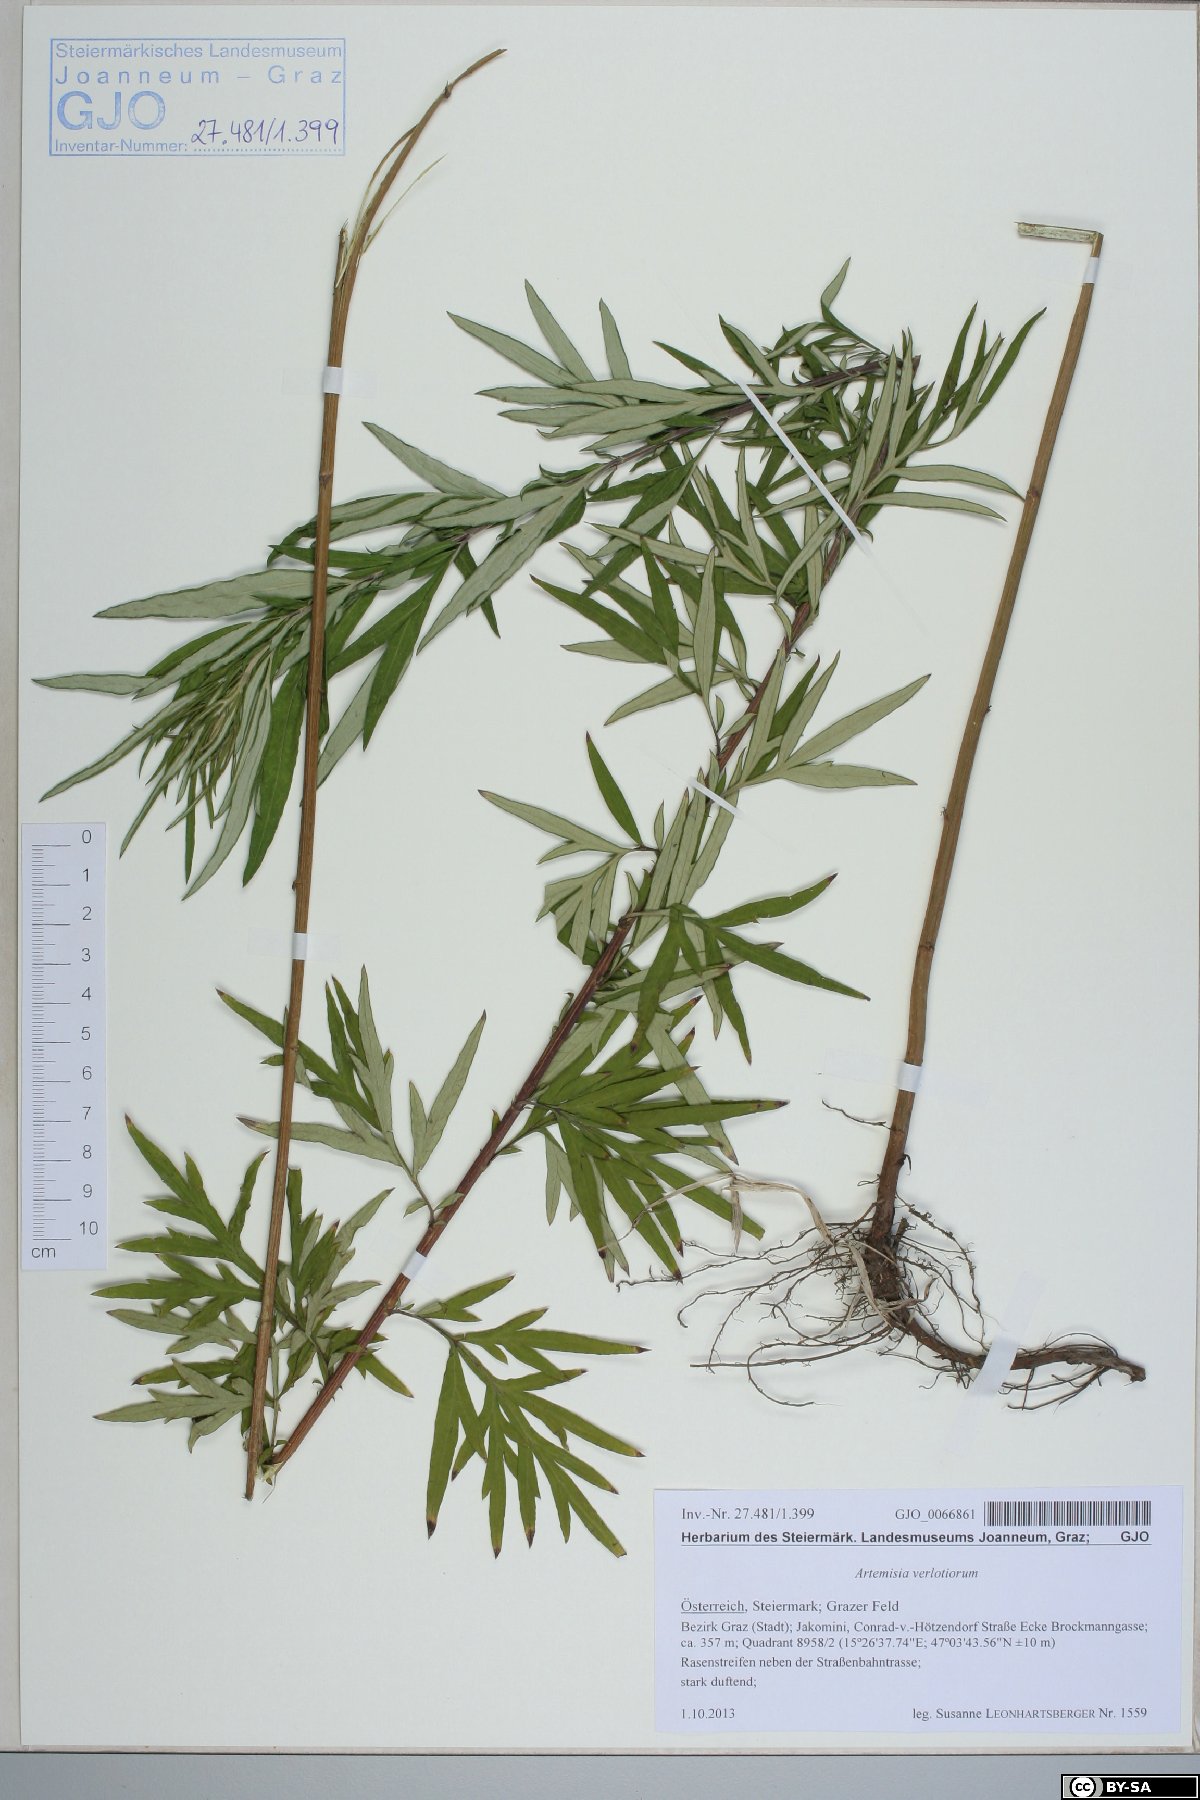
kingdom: Plantae
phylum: Tracheophyta
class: Magnoliopsida
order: Asterales
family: Asteraceae
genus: Artemisia
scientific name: Artemisia verlotiorum
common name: Chinese mugwort
